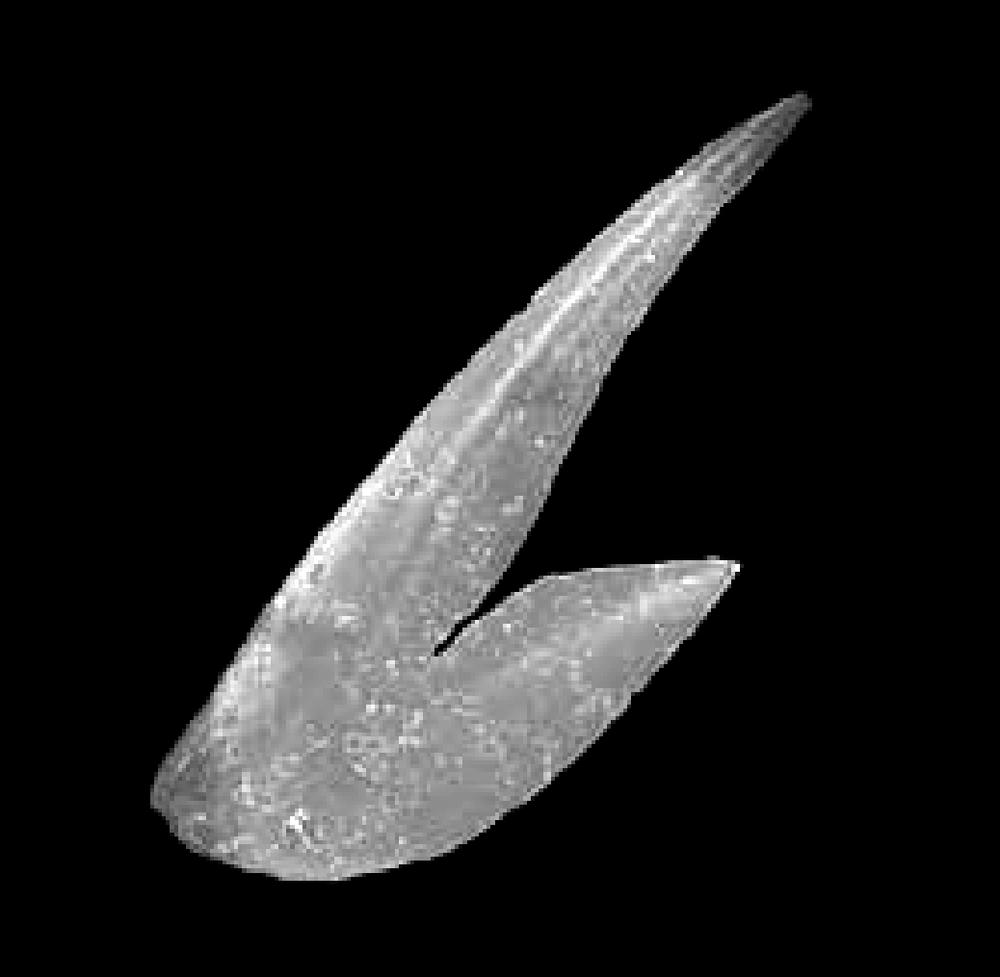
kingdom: Animalia
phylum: Chordata
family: Drepanoistodontidae
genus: Drepanoistodus
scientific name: Drepanoistodus Oistodus forceps
